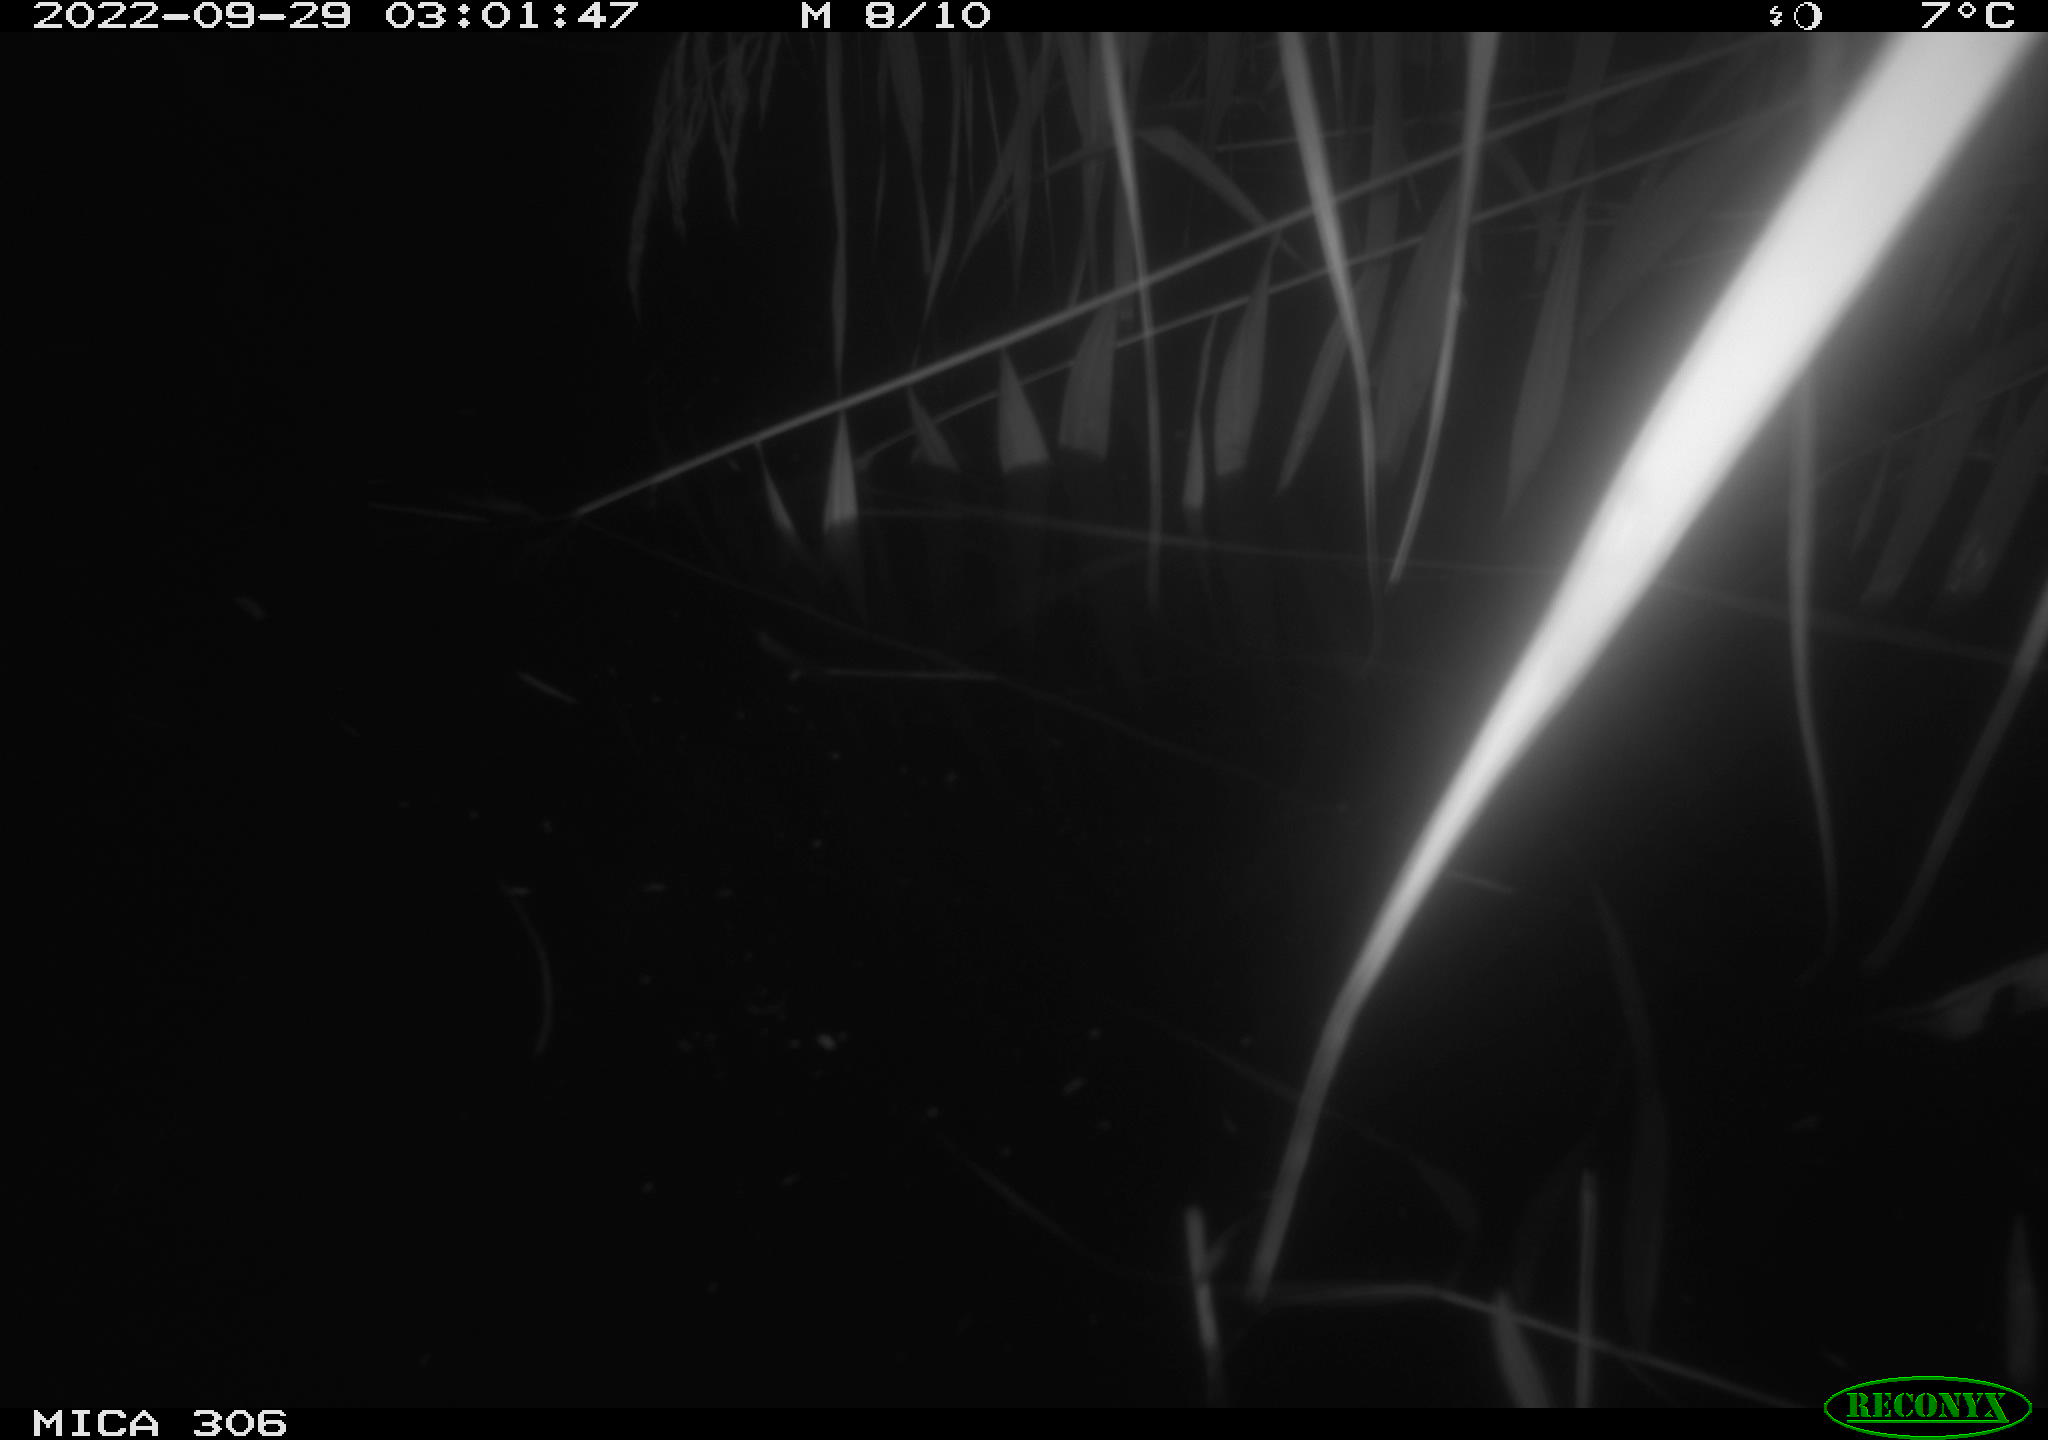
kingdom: Animalia
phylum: Chordata
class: Mammalia
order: Rodentia
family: Muridae
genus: Rattus
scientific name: Rattus norvegicus
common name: Brown rat
